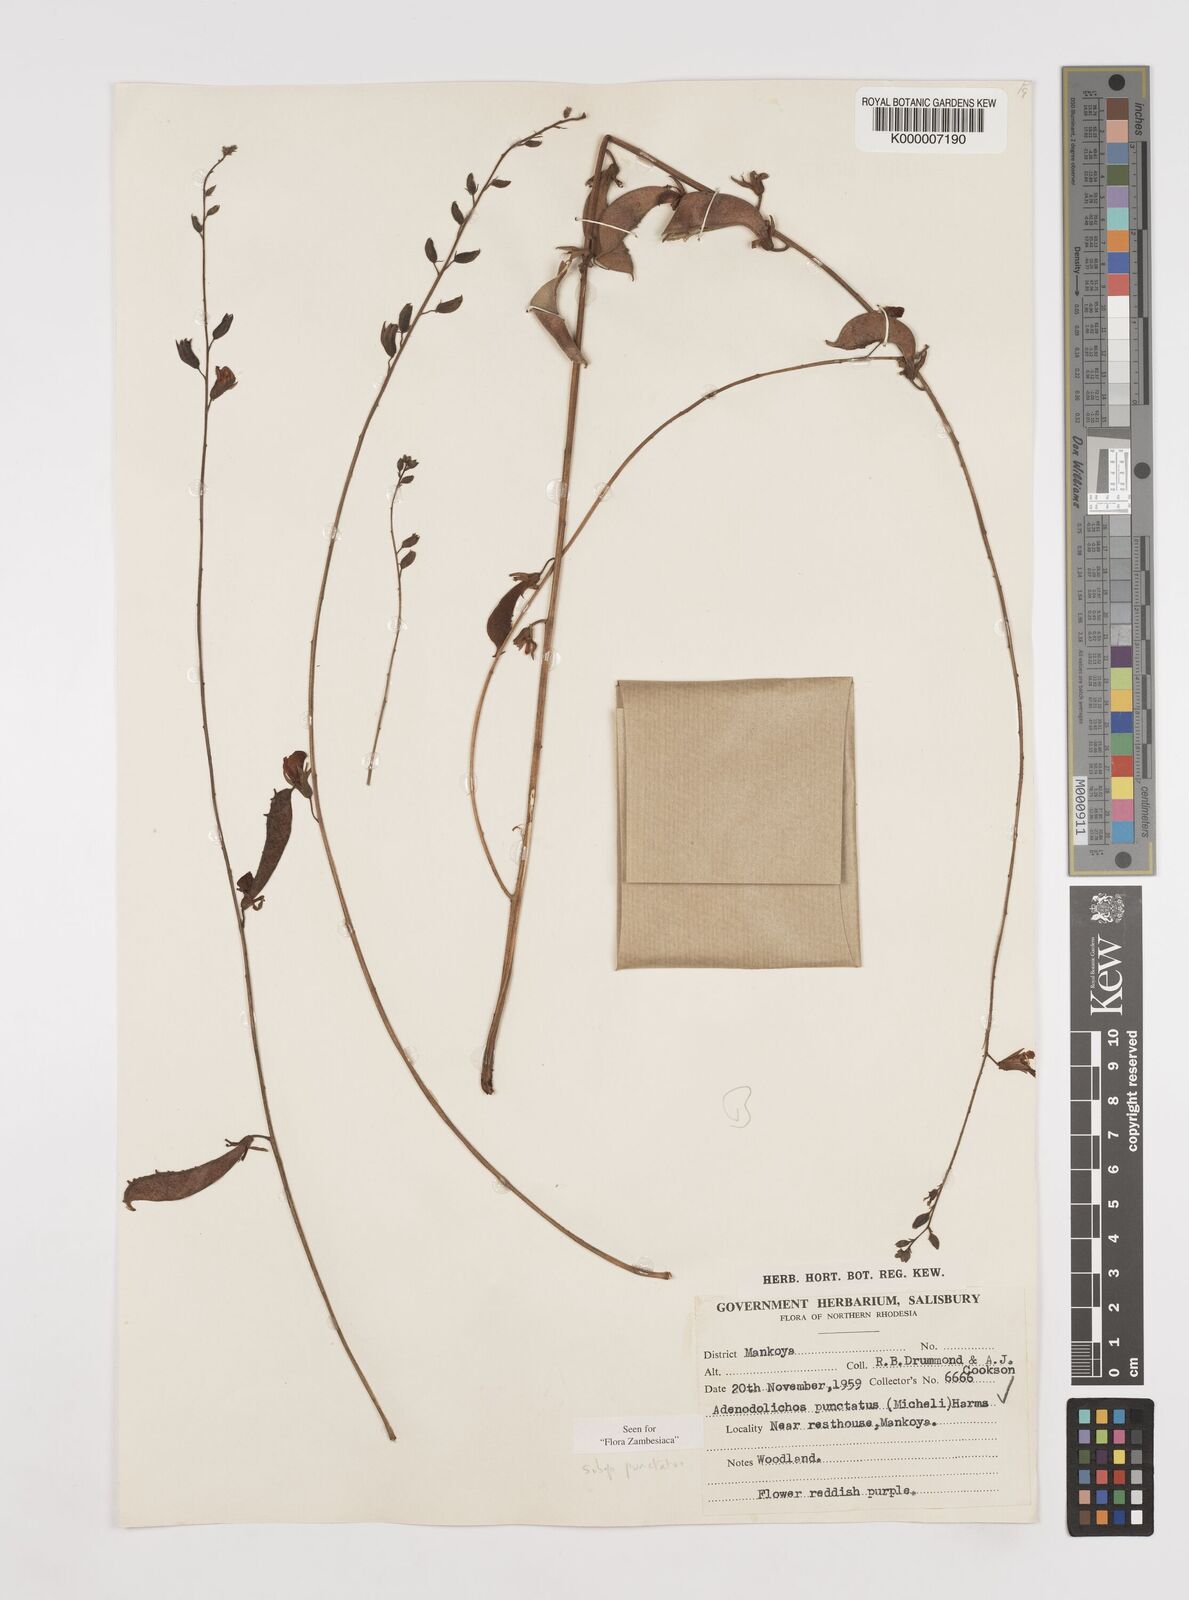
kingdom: Plantae
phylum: Tracheophyta
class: Magnoliopsida
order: Fabales
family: Fabaceae
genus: Adenodolichos
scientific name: Adenodolichos punctatus
